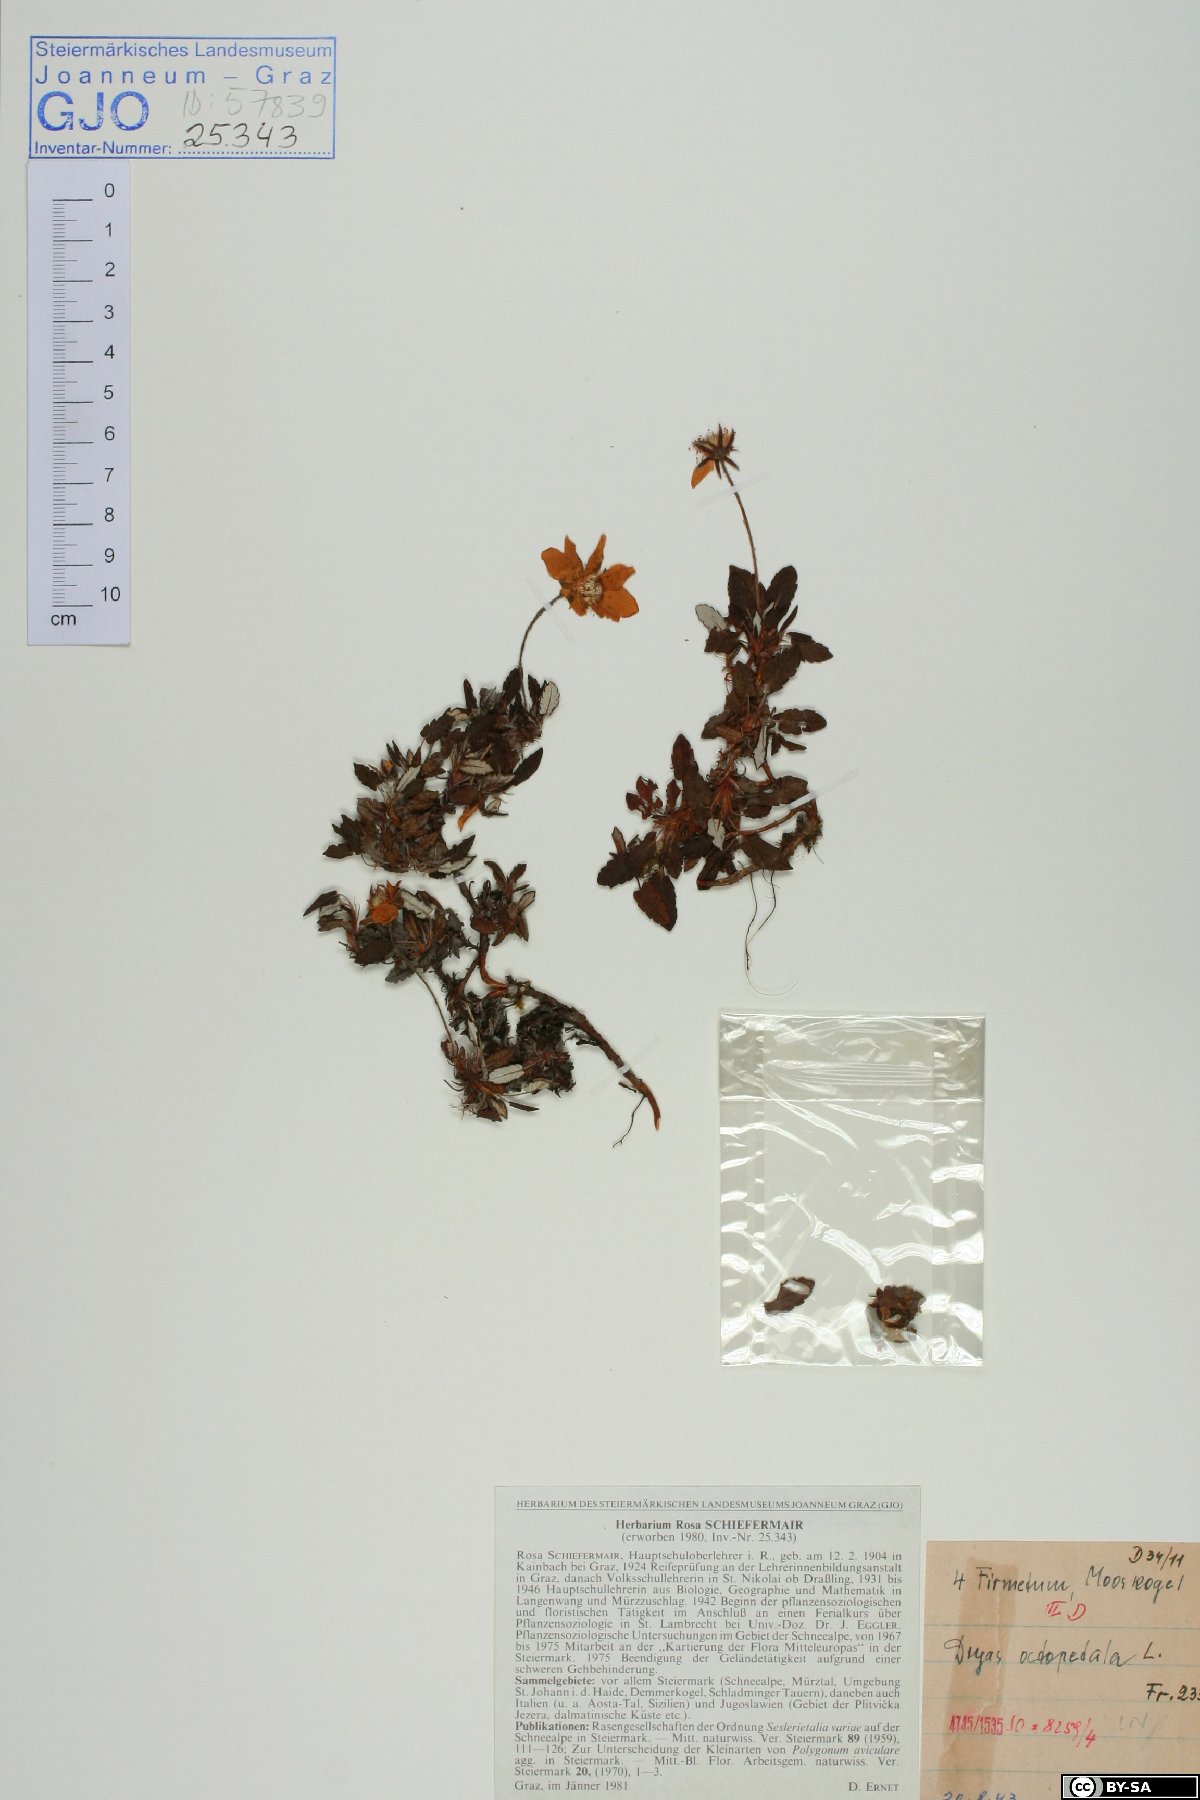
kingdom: Plantae
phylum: Tracheophyta
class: Magnoliopsida
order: Rosales
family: Rosaceae
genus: Dryas
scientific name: Dryas octopetala
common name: Eight-petal mountain-avens
